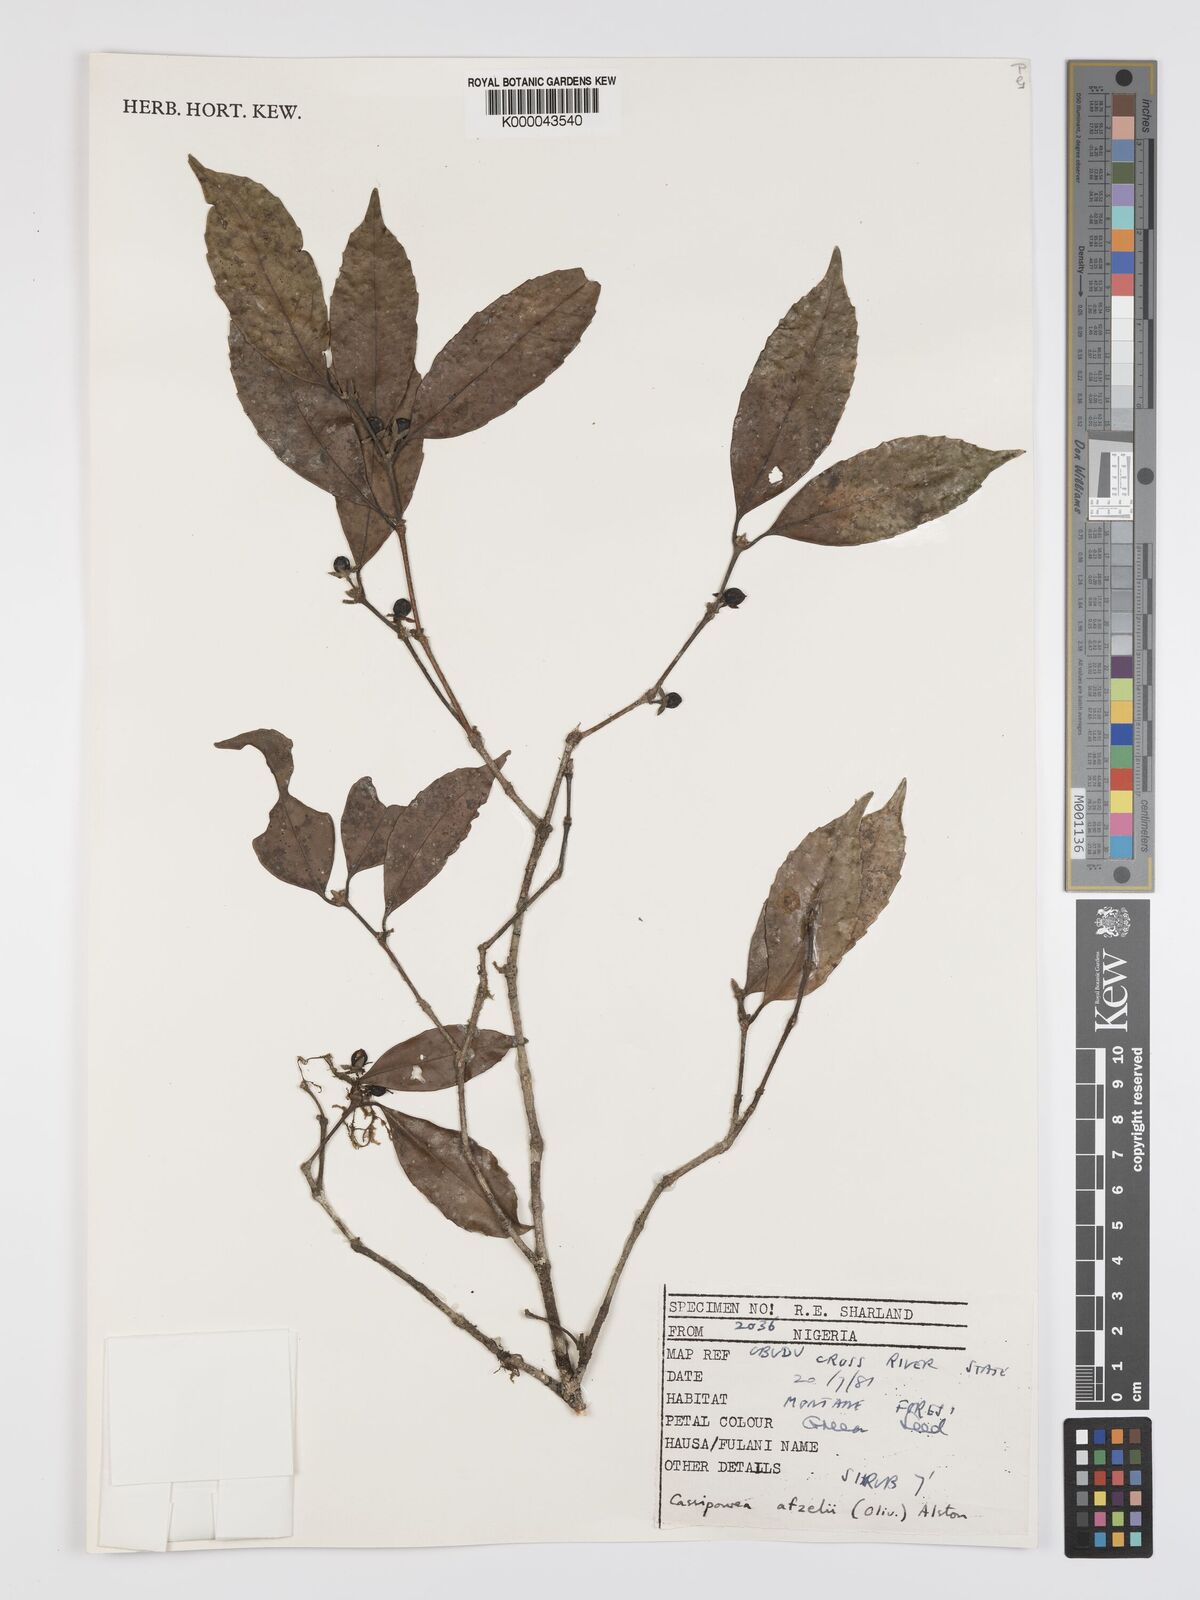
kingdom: Plantae
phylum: Tracheophyta
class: Magnoliopsida
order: Malpighiales
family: Rhizophoraceae
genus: Cassipourea
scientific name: Cassipourea afzelii
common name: Elephant tusk tree
